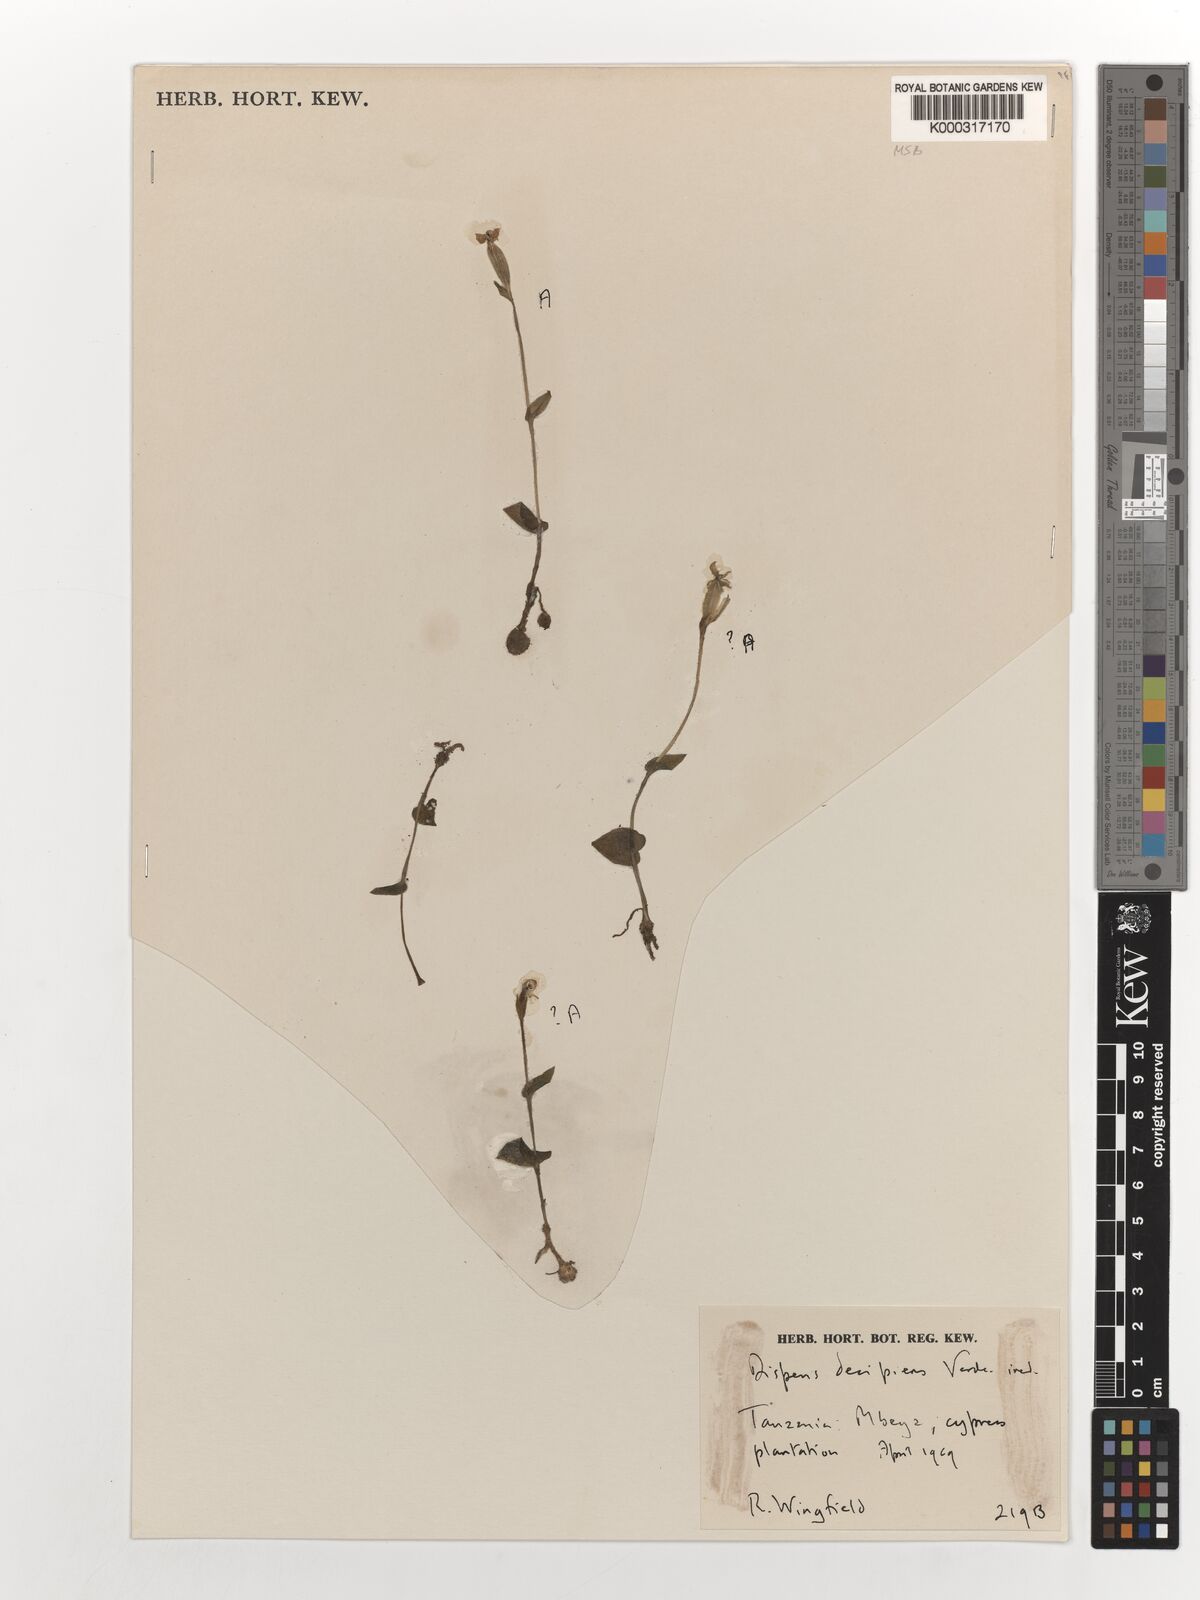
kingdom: Plantae
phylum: Tracheophyta
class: Liliopsida
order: Asparagales
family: Orchidaceae
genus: Disperis
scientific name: Disperis decipiens
